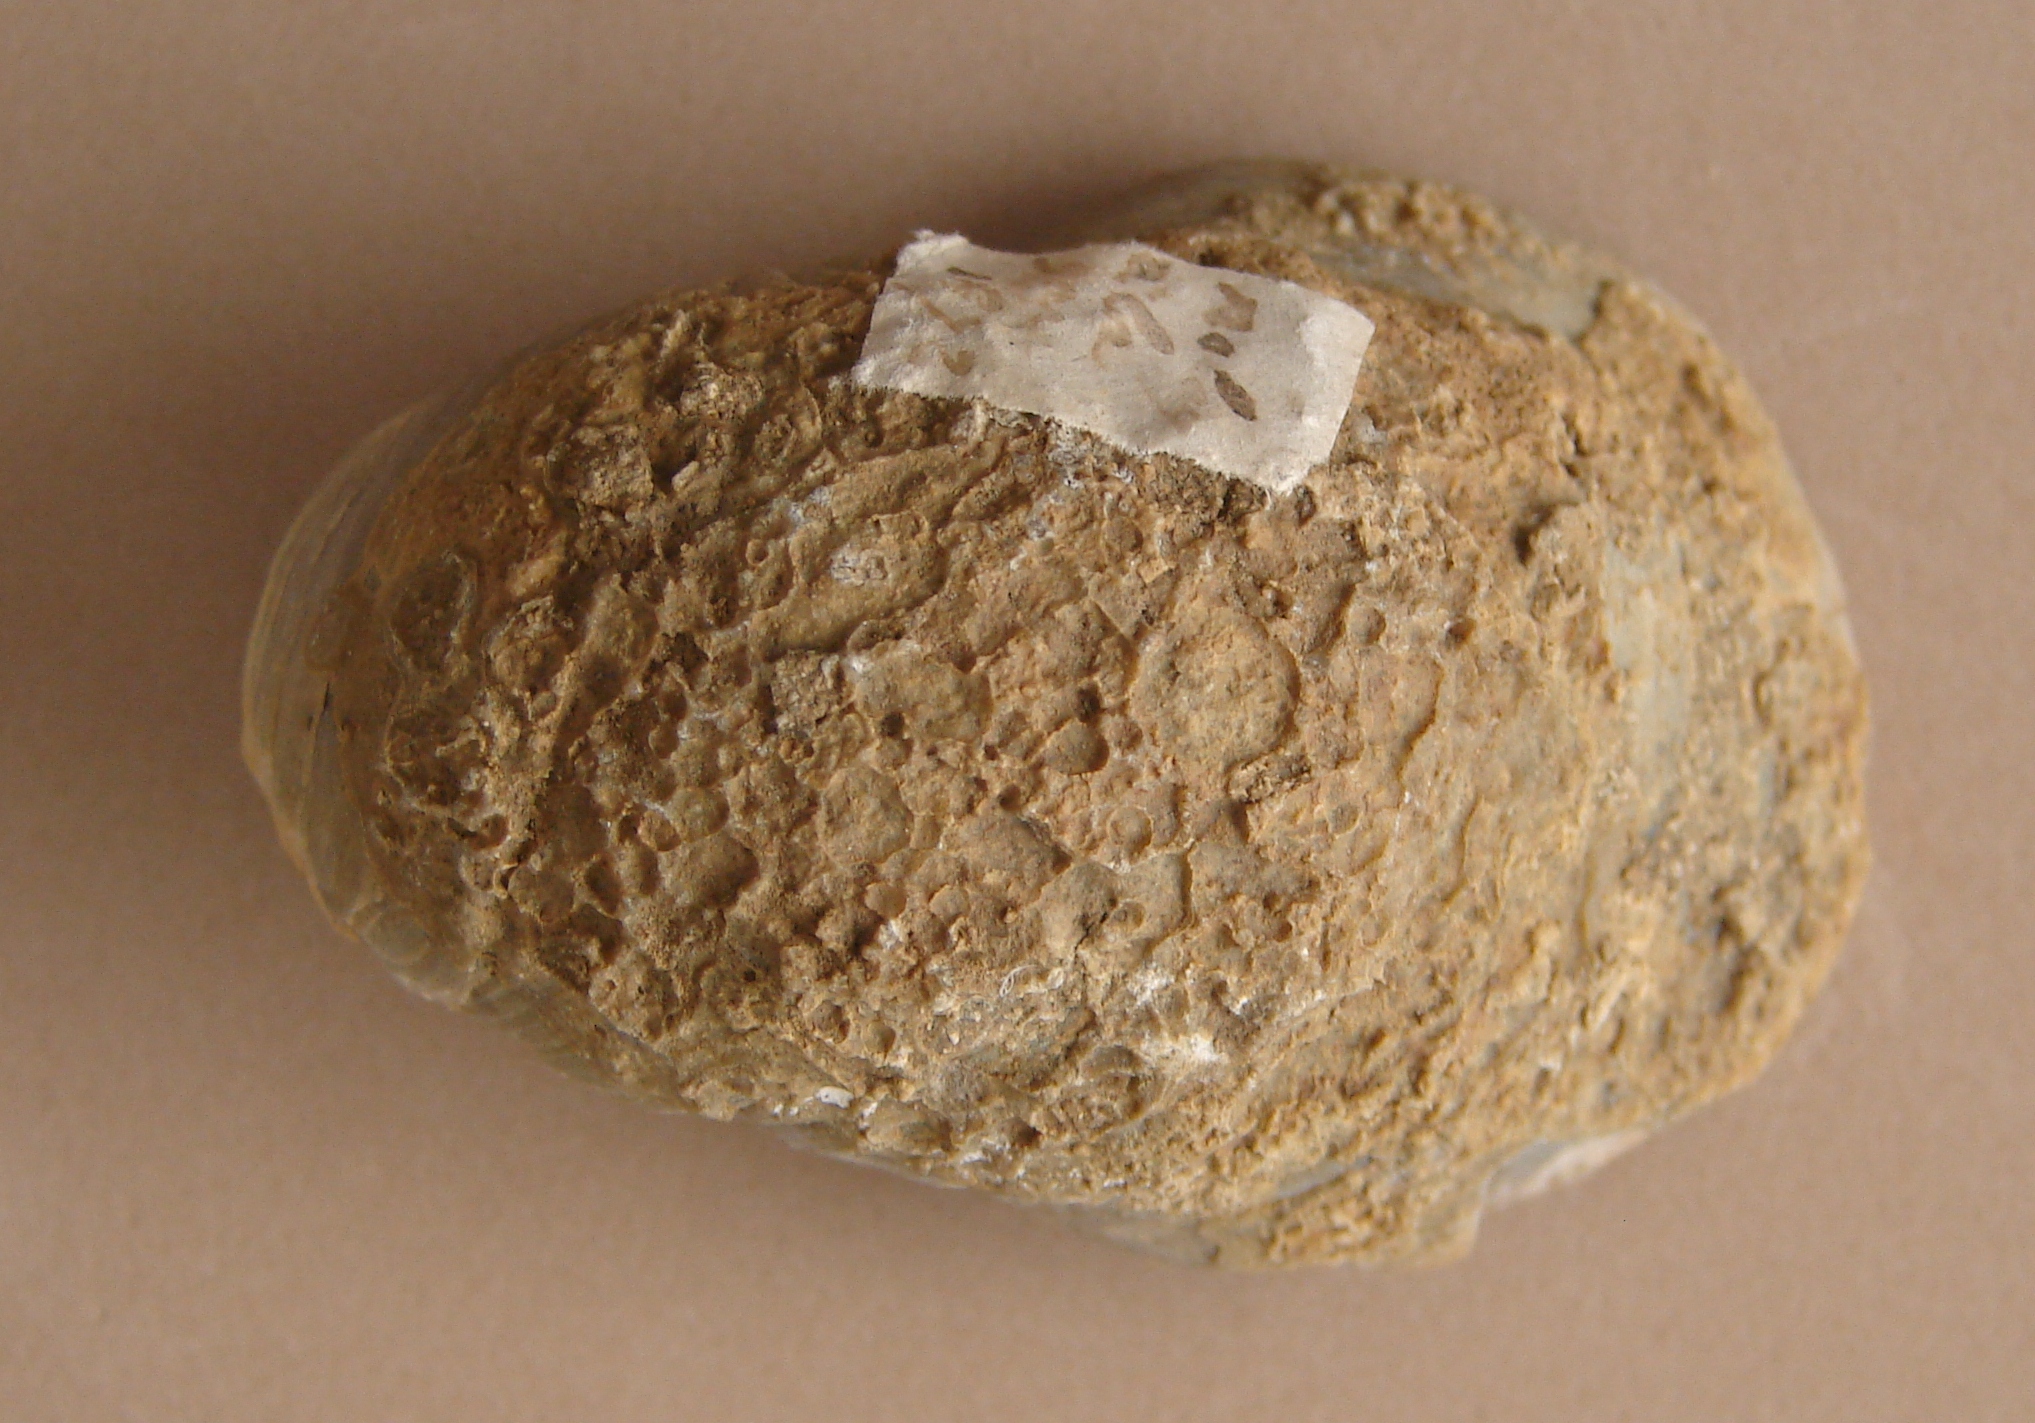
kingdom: Animalia
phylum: Mollusca
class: Bivalvia
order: Ostreida
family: Gryphaeidae
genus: Gryphaea
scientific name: Gryphaea
